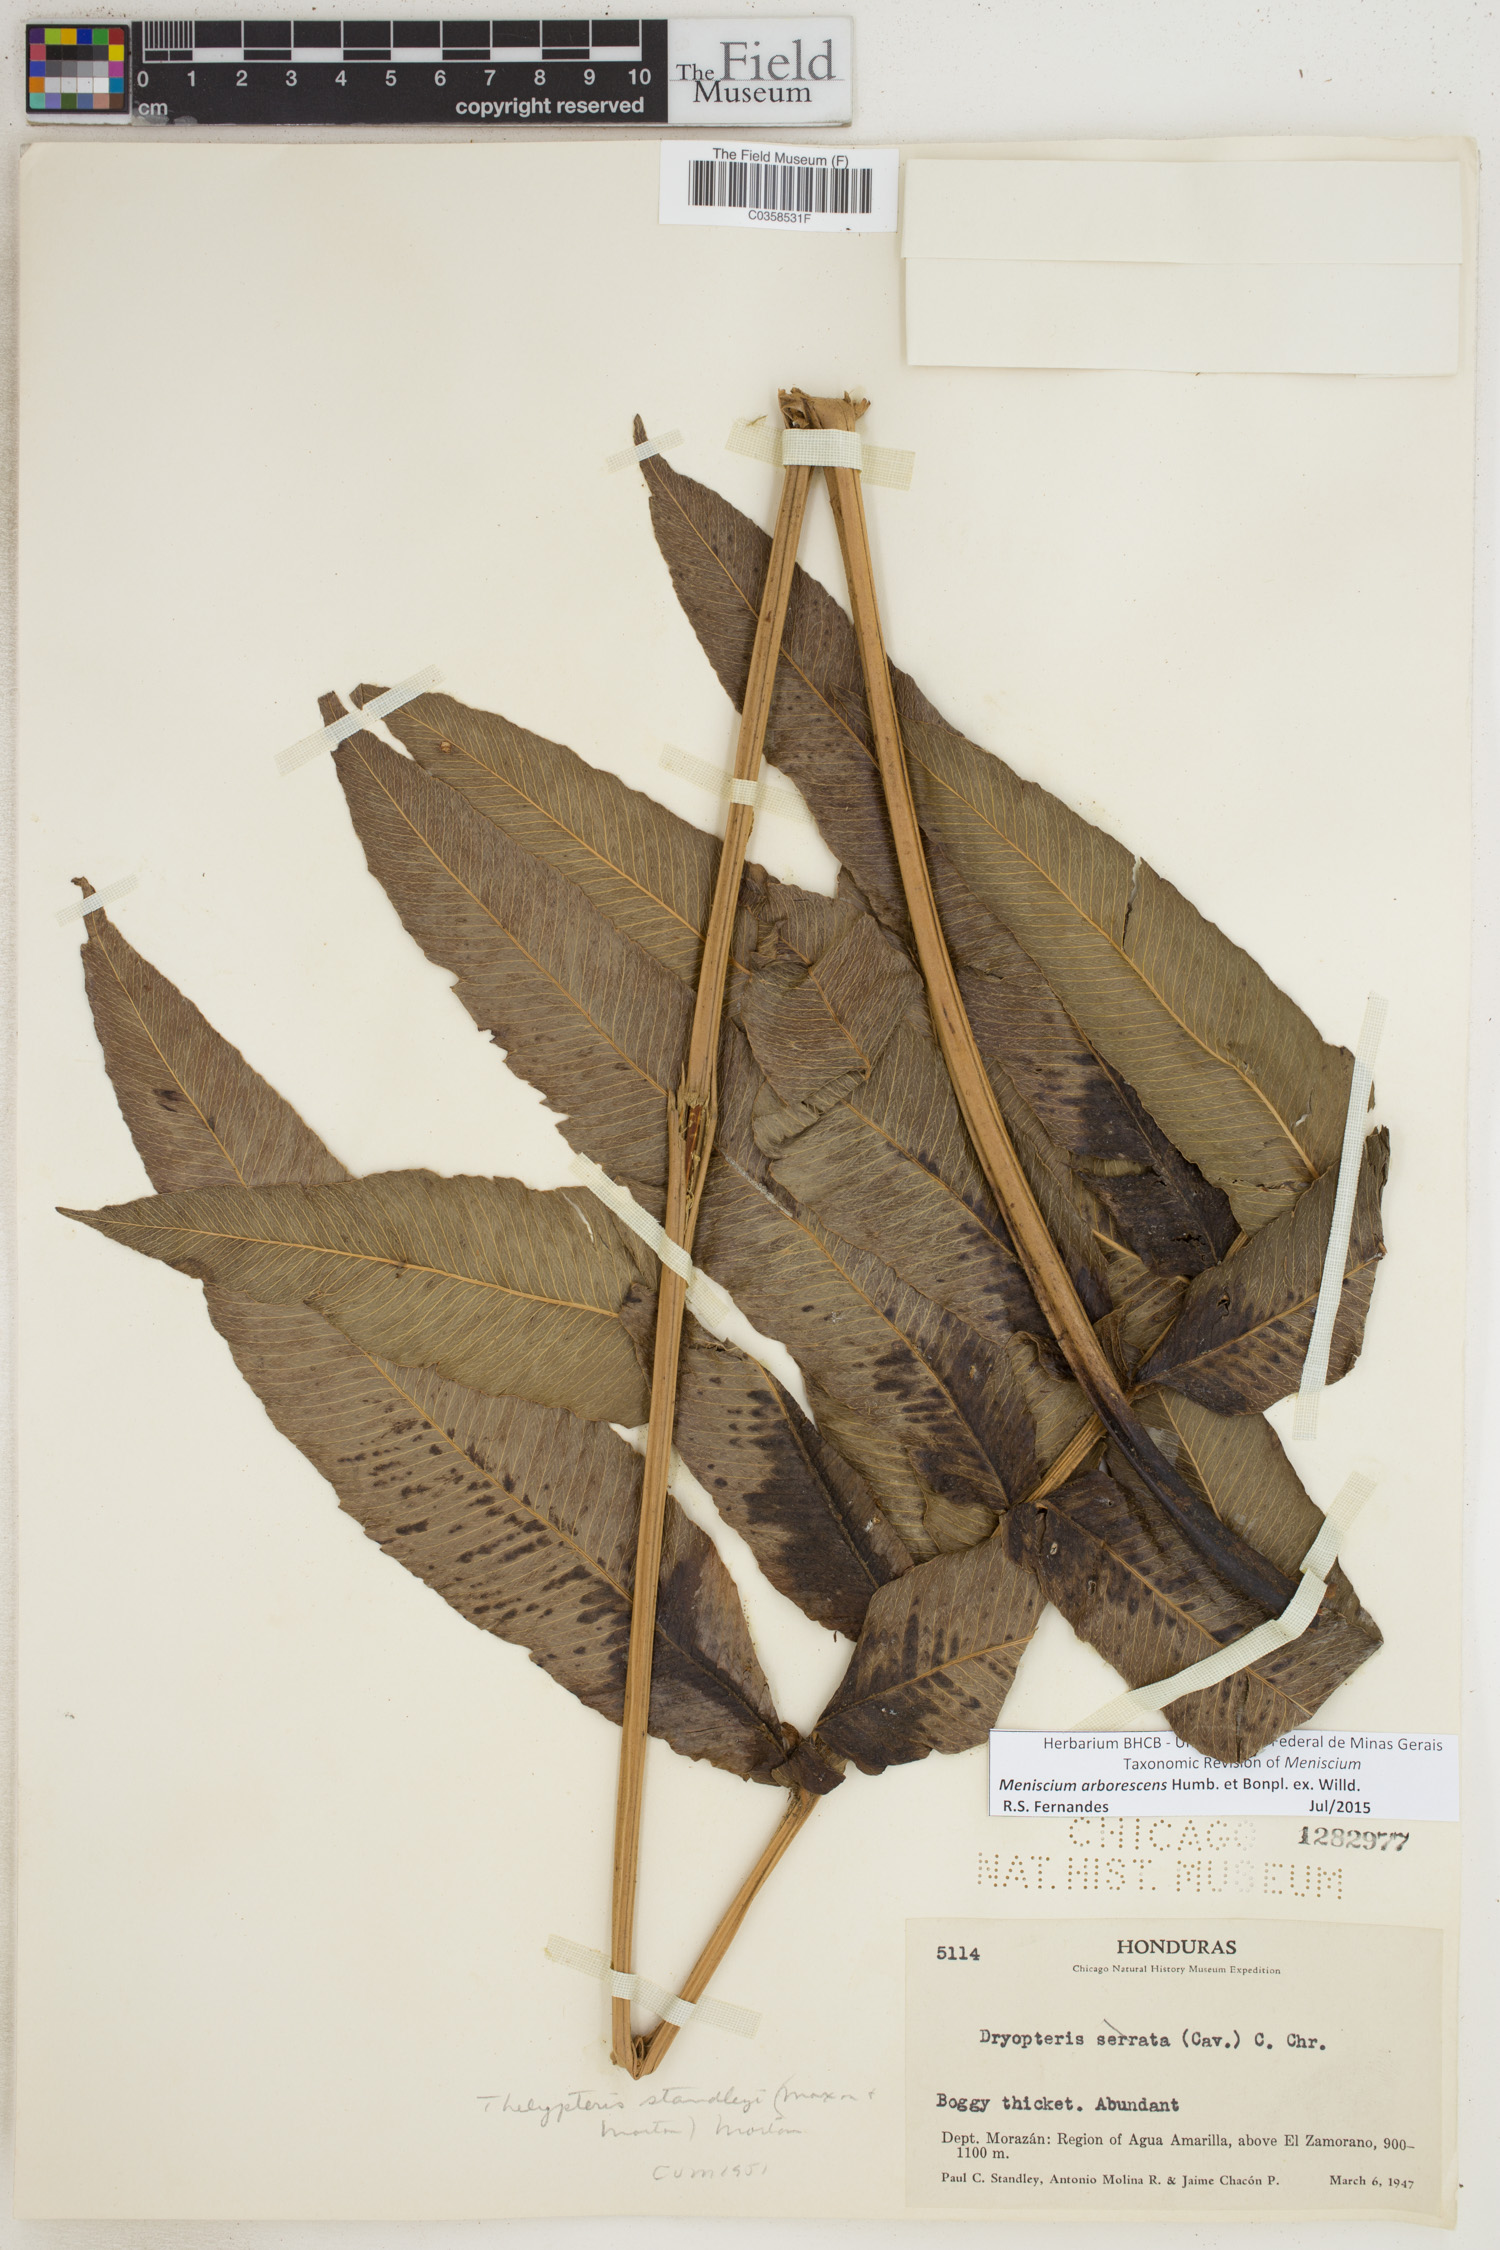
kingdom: Plantae
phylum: Tracheophyta
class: Polypodiopsida
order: Polypodiales
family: Thelypteridaceae
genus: Meniscium
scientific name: Meniscium arborescens
